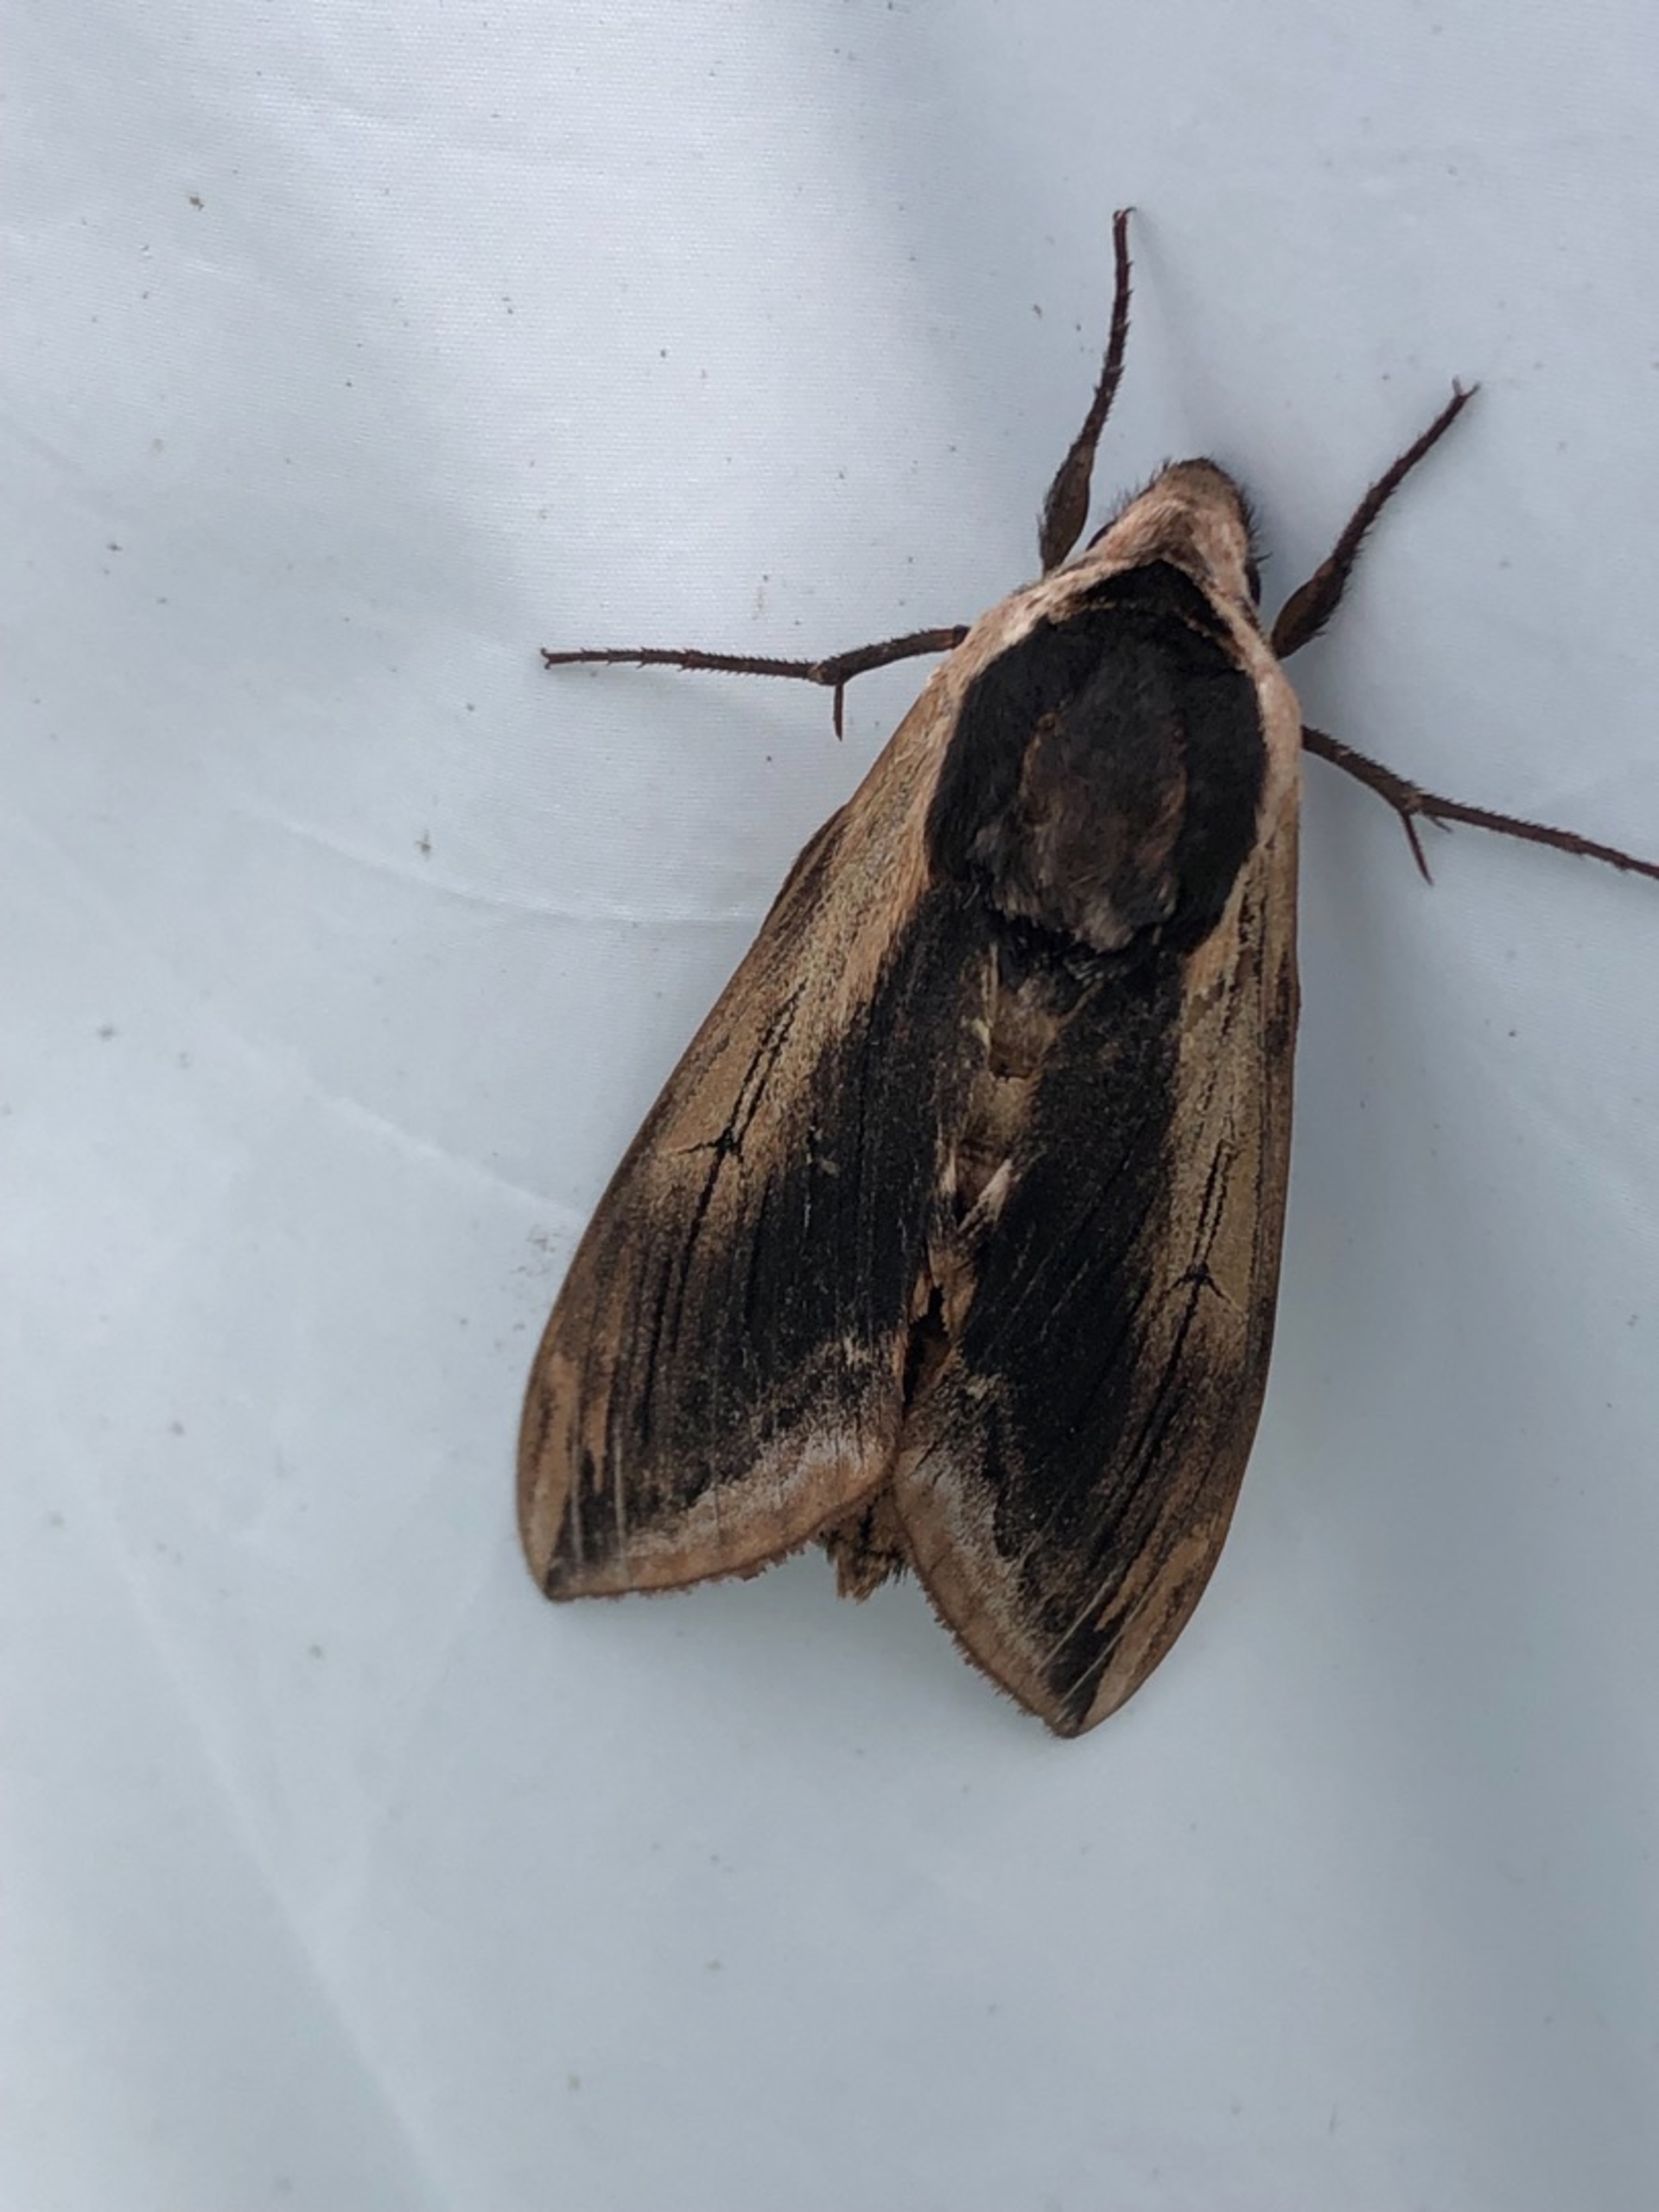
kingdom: Animalia
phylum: Arthropoda
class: Insecta
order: Lepidoptera
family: Sphingidae
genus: Sphinx
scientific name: Sphinx ligustri
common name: Ligustersværmer
